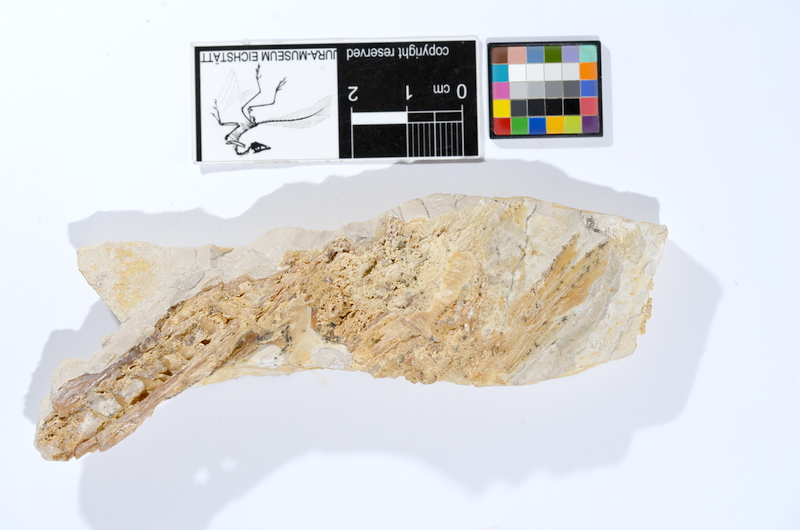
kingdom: Animalia
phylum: Chordata
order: Amiiformes
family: Caturidae
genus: Caturus
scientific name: Caturus
